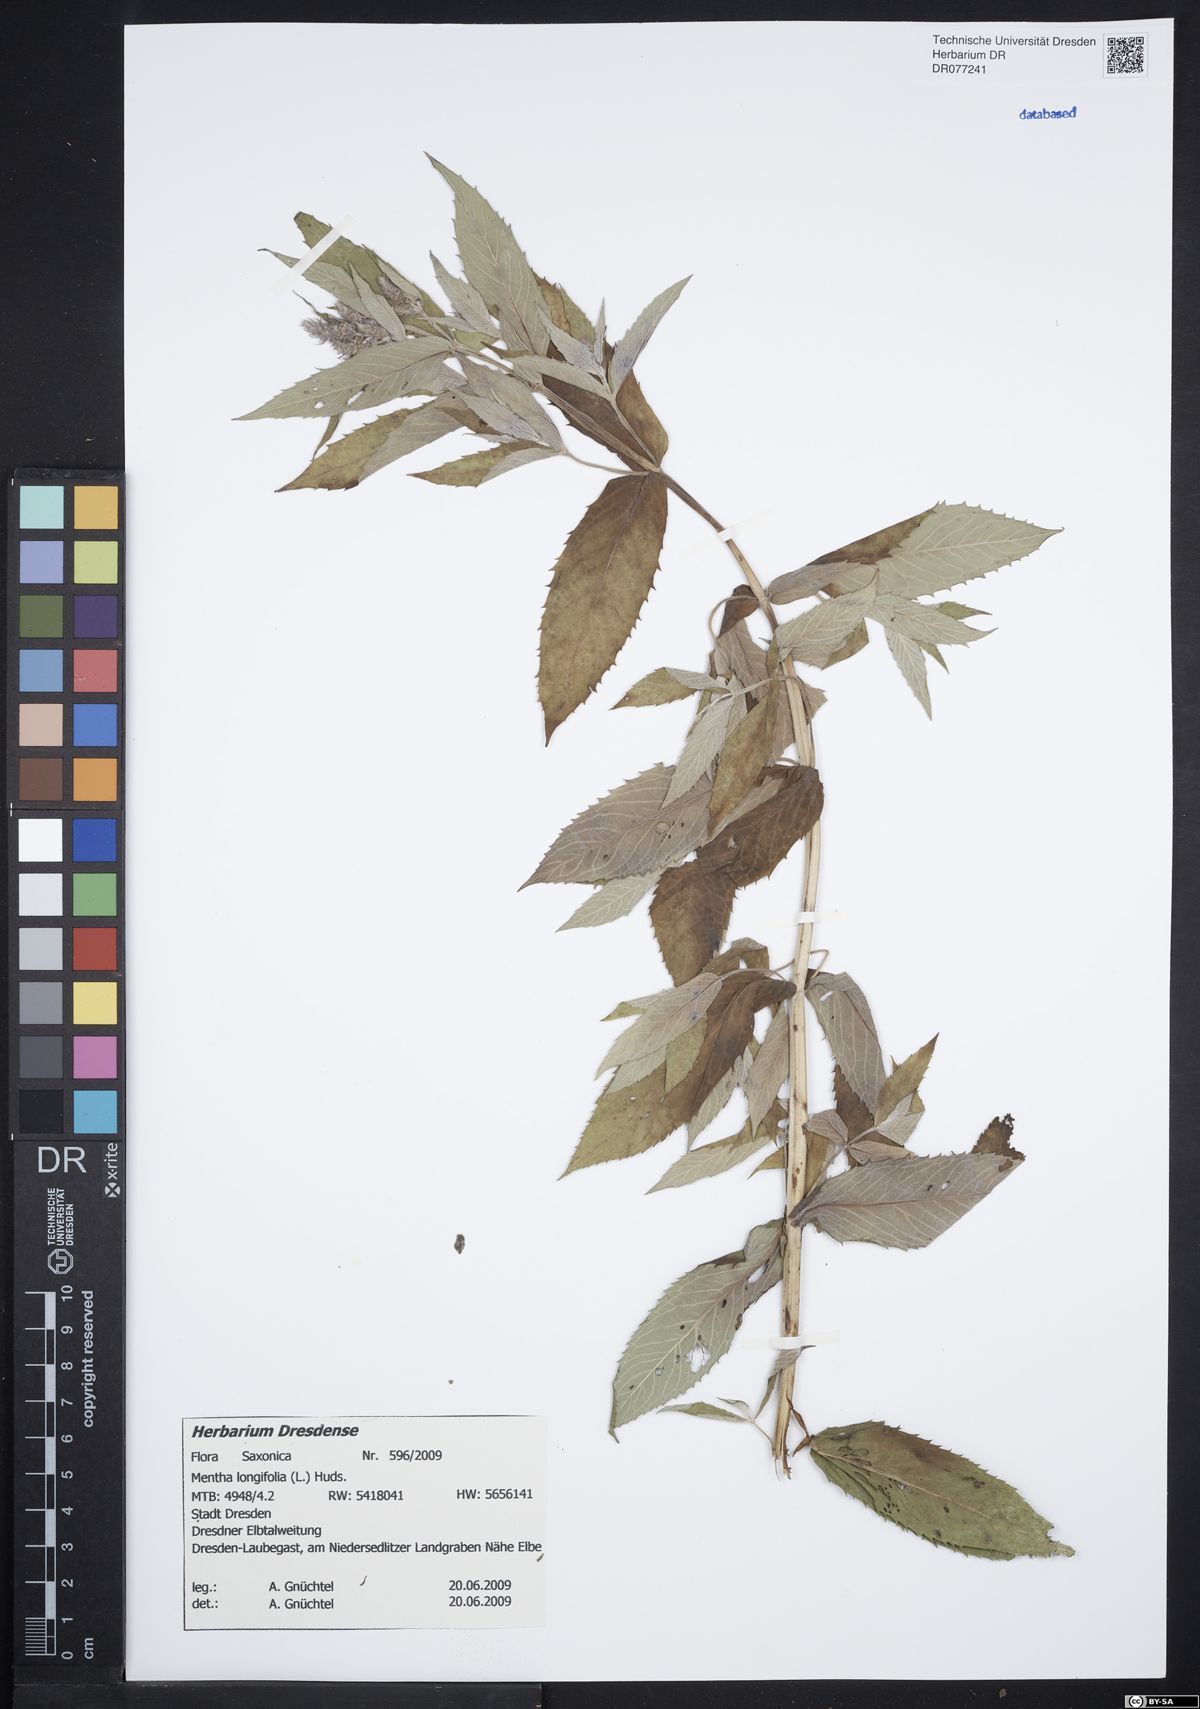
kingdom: Plantae
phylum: Tracheophyta
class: Magnoliopsida
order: Lamiales
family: Lamiaceae
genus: Mentha
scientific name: Mentha longifolia
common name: Horse mint
